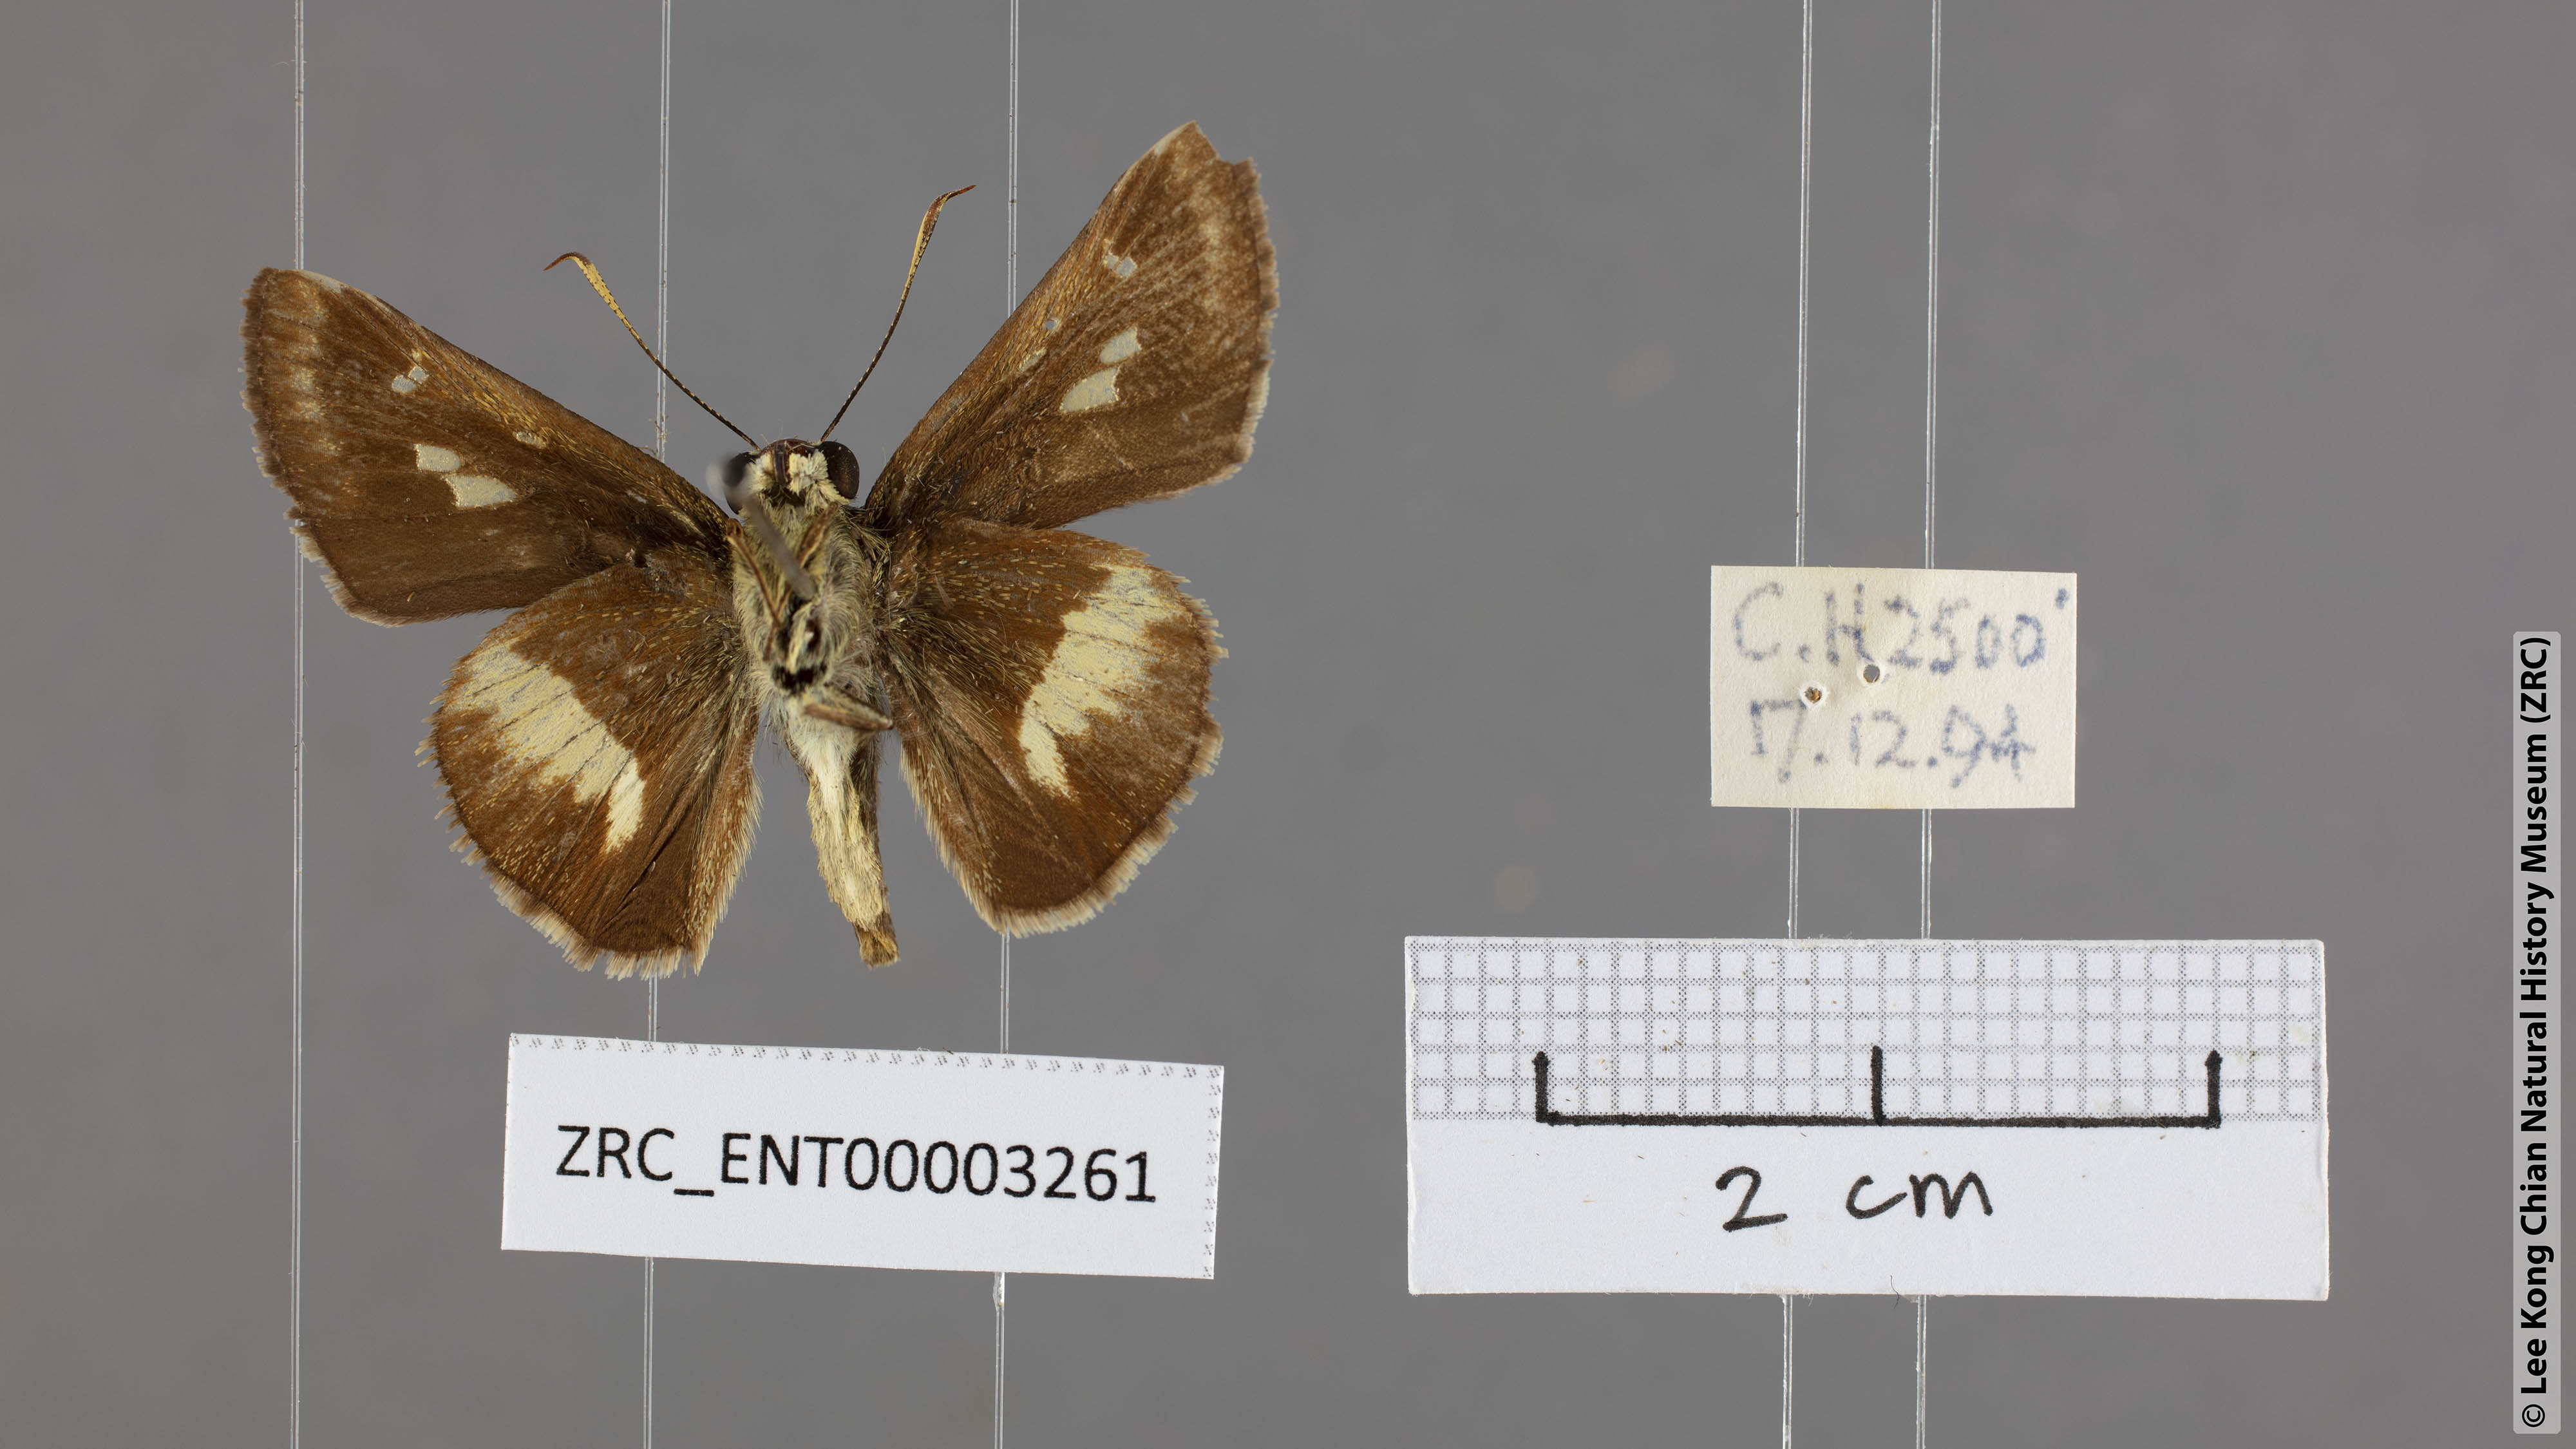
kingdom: Animalia
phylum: Arthropoda
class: Insecta
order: Lepidoptera
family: Hesperiidae
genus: Halpe
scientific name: Halpe zema
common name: Dark banded ace
